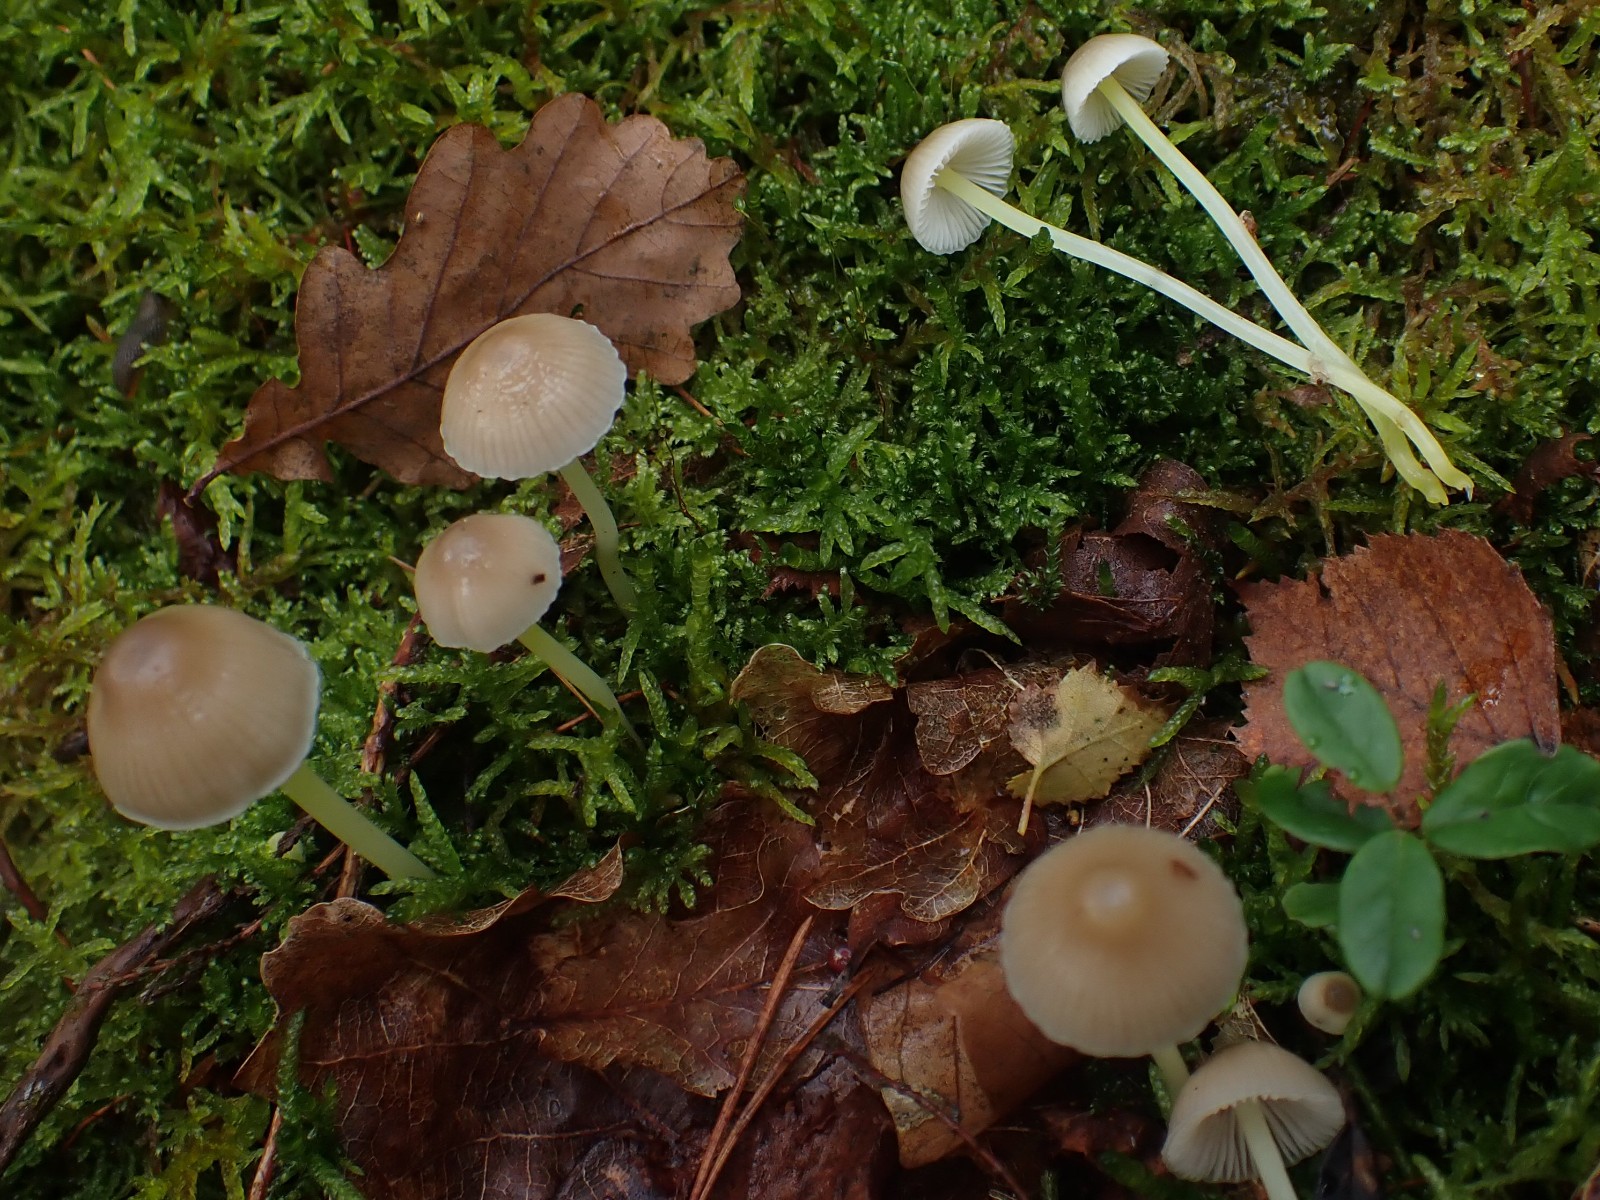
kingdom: Fungi
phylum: Basidiomycota
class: Agaricomycetes
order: Agaricales
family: Mycenaceae
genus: Mycena
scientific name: Mycena epipterygia
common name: gulstokket huesvamp
